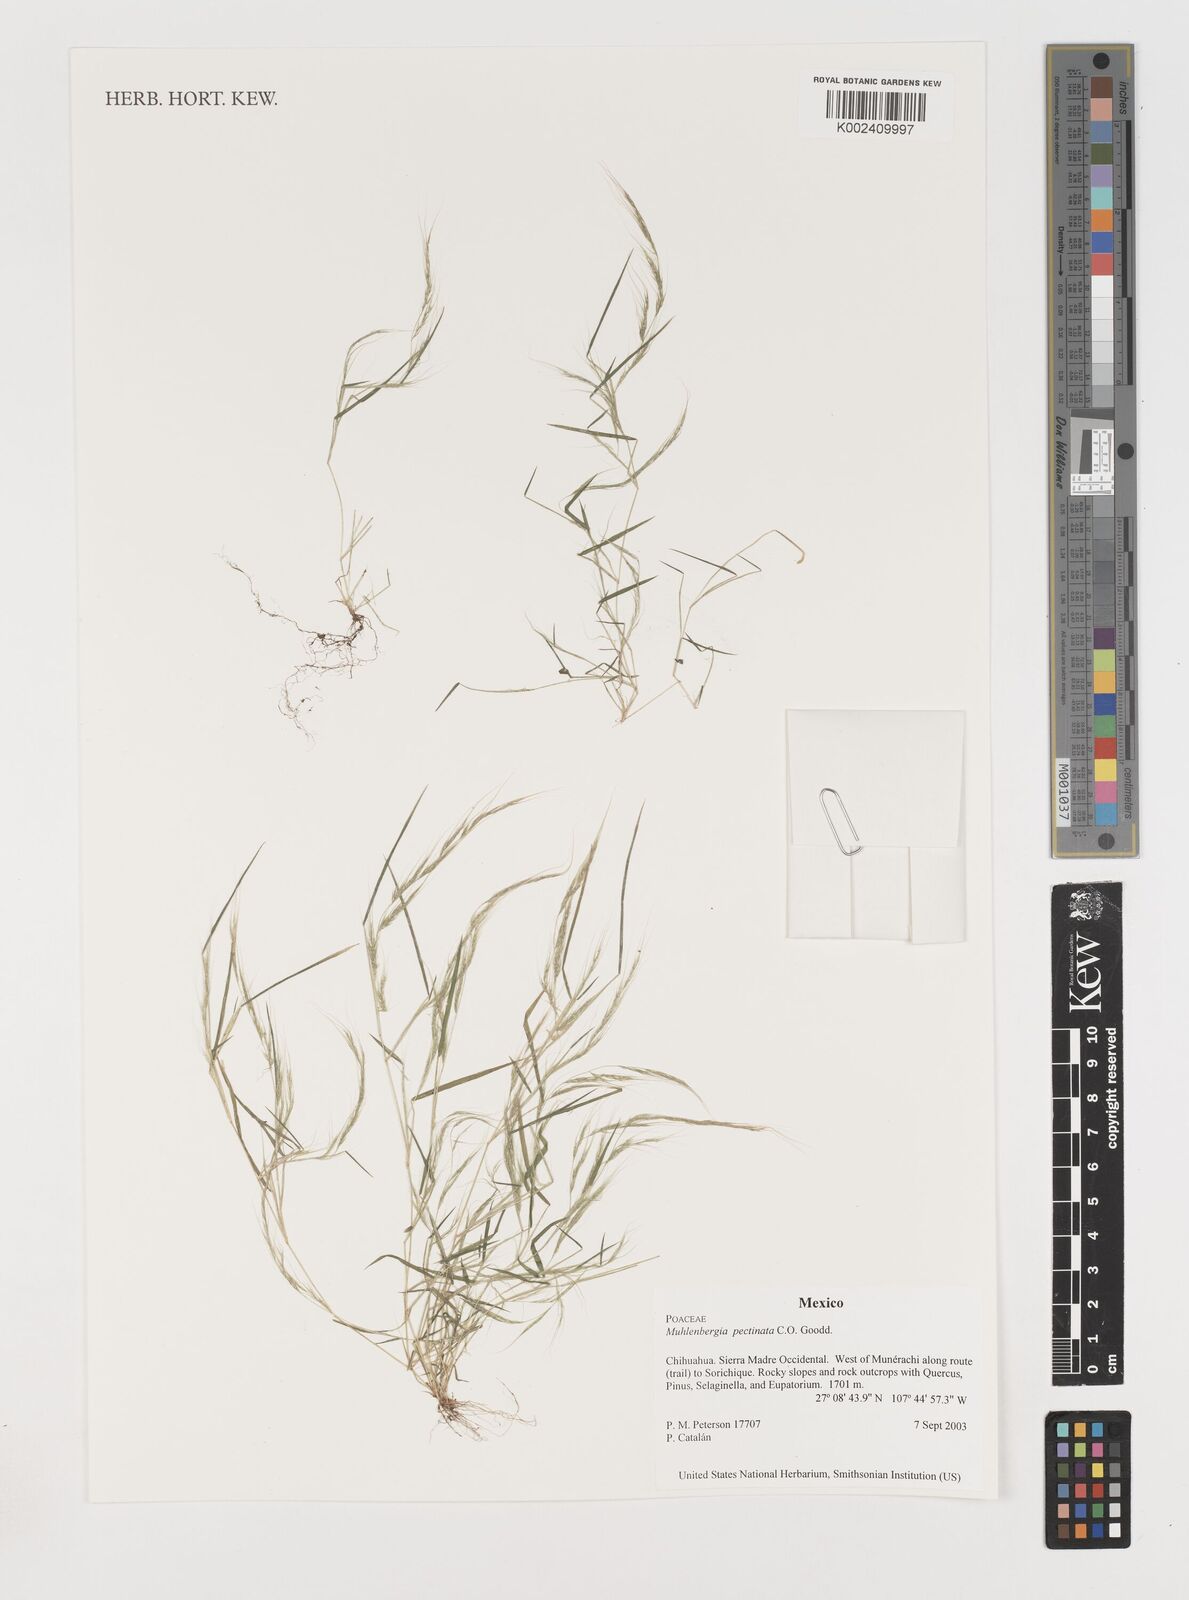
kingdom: Plantae
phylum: Tracheophyta
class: Liliopsida
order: Poales
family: Poaceae
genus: Muhlenbergia
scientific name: Muhlenbergia pectinata
